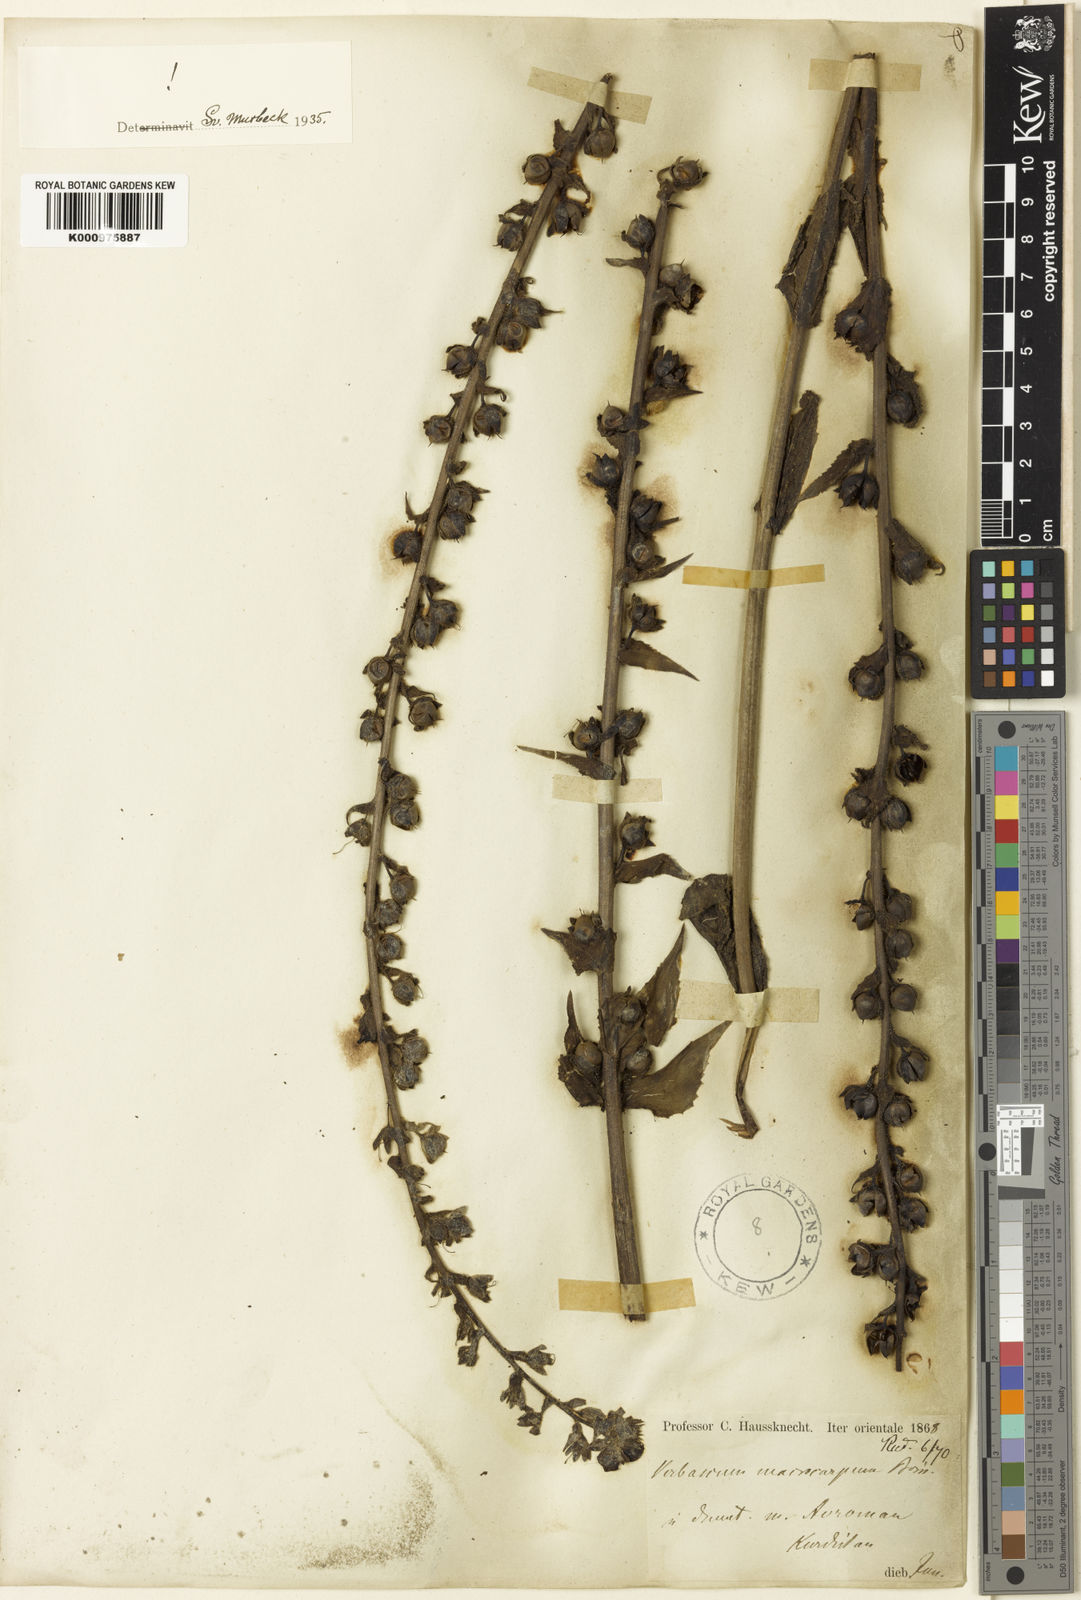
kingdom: Plantae
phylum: Tracheophyta
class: Magnoliopsida
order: Lamiales
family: Scrophulariaceae
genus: Verbascum
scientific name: Verbascum macrocarpum
